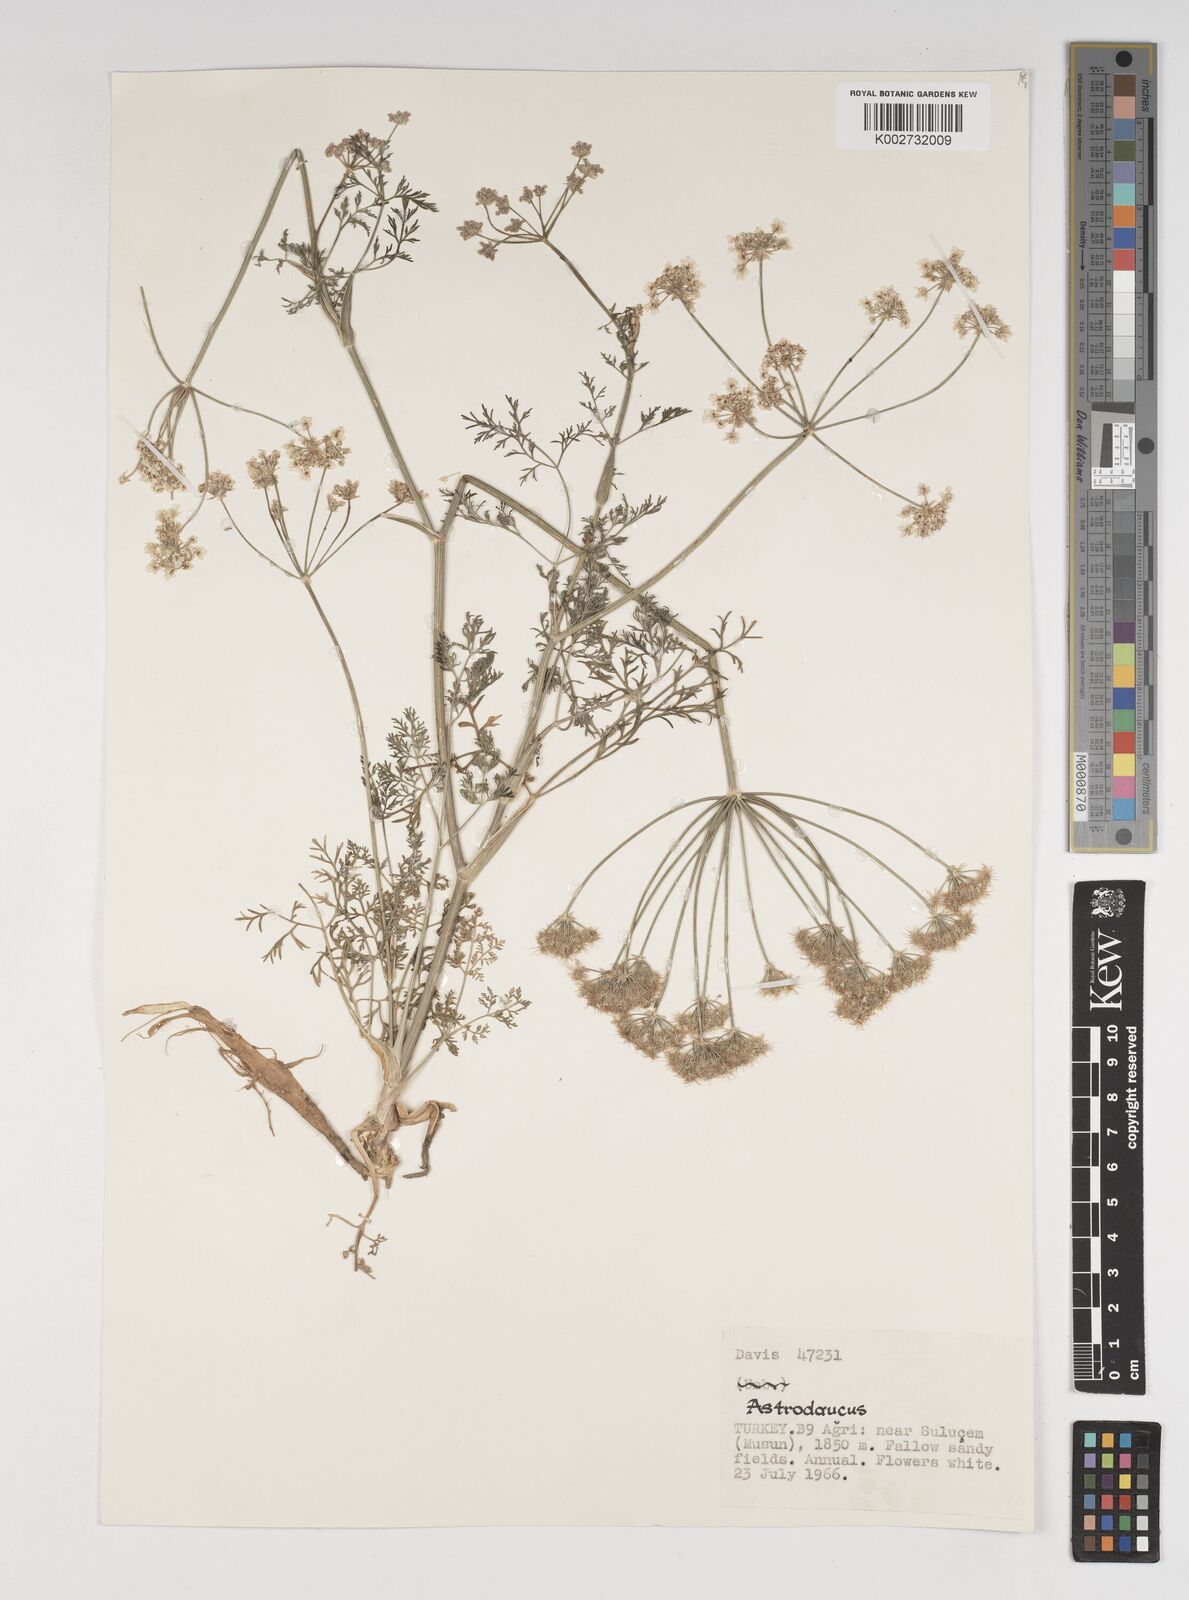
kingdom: Plantae
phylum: Tracheophyta
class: Magnoliopsida
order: Apiales
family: Apiaceae
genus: Astrodaucus
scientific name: Astrodaucus
